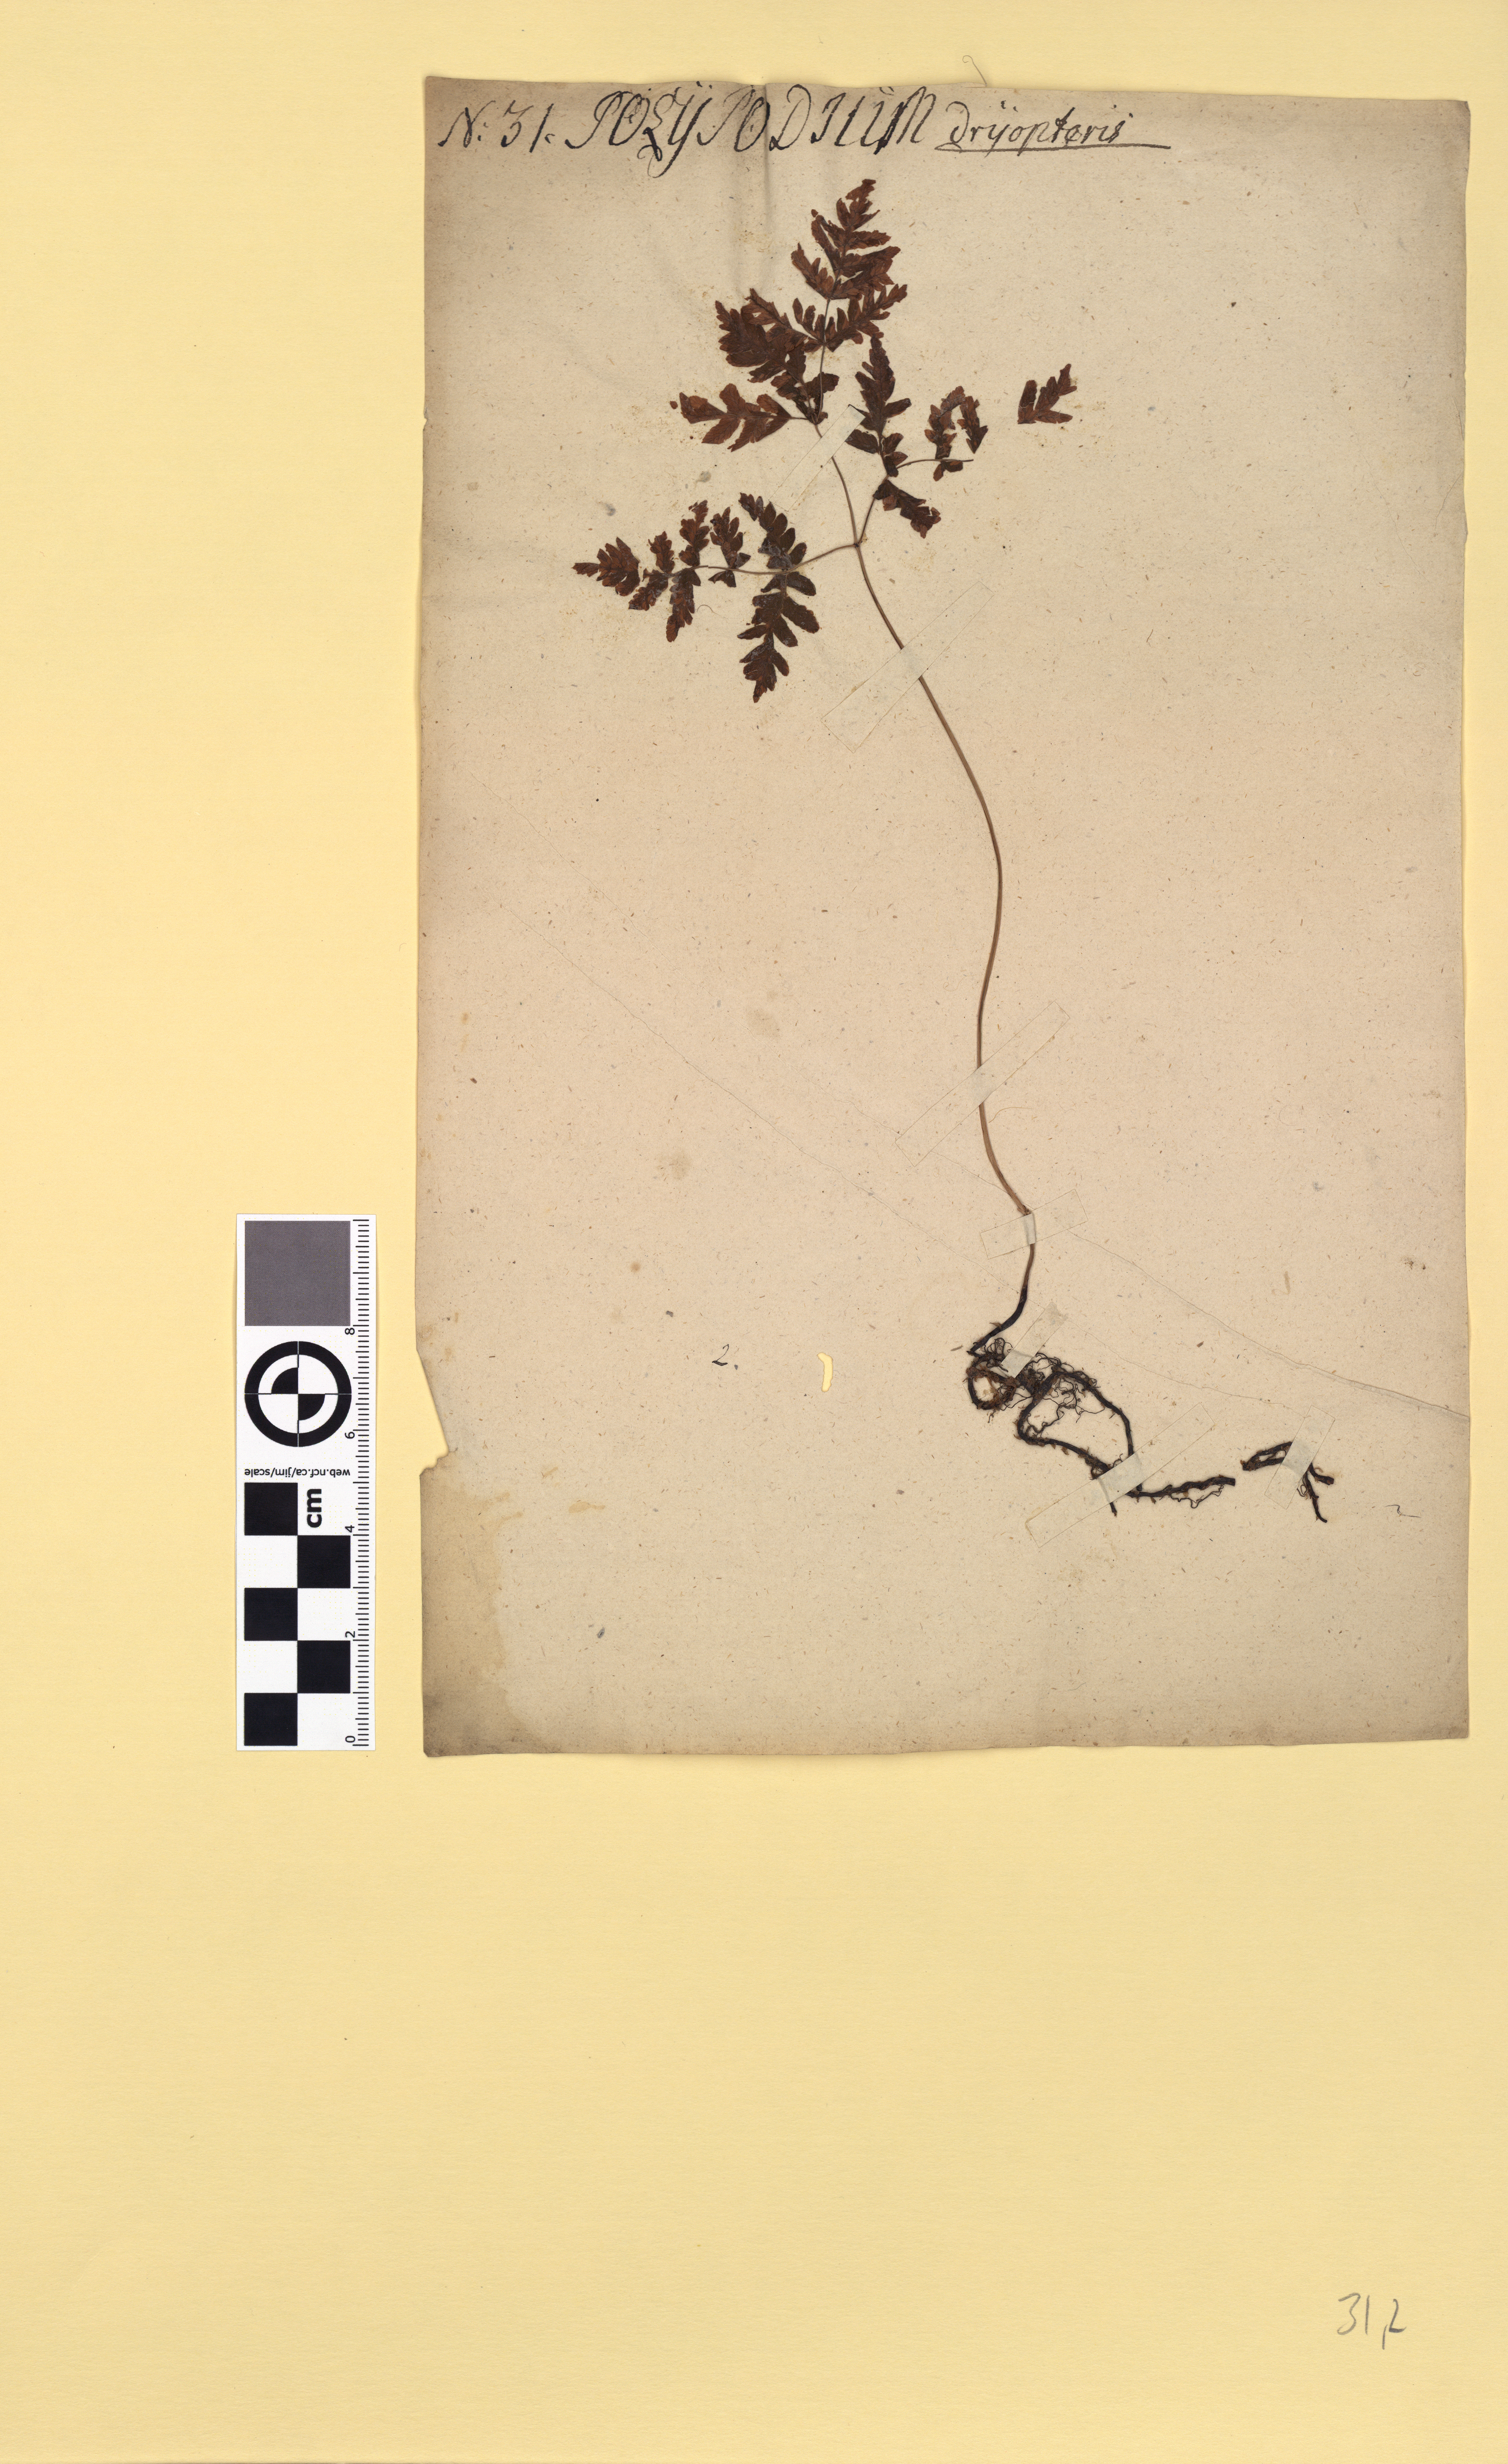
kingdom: Plantae
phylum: Tracheophyta
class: Polypodiopsida
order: Polypodiales
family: Cystopteridaceae
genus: Gymnocarpium
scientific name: Gymnocarpium dryopteris
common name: Oak fern
